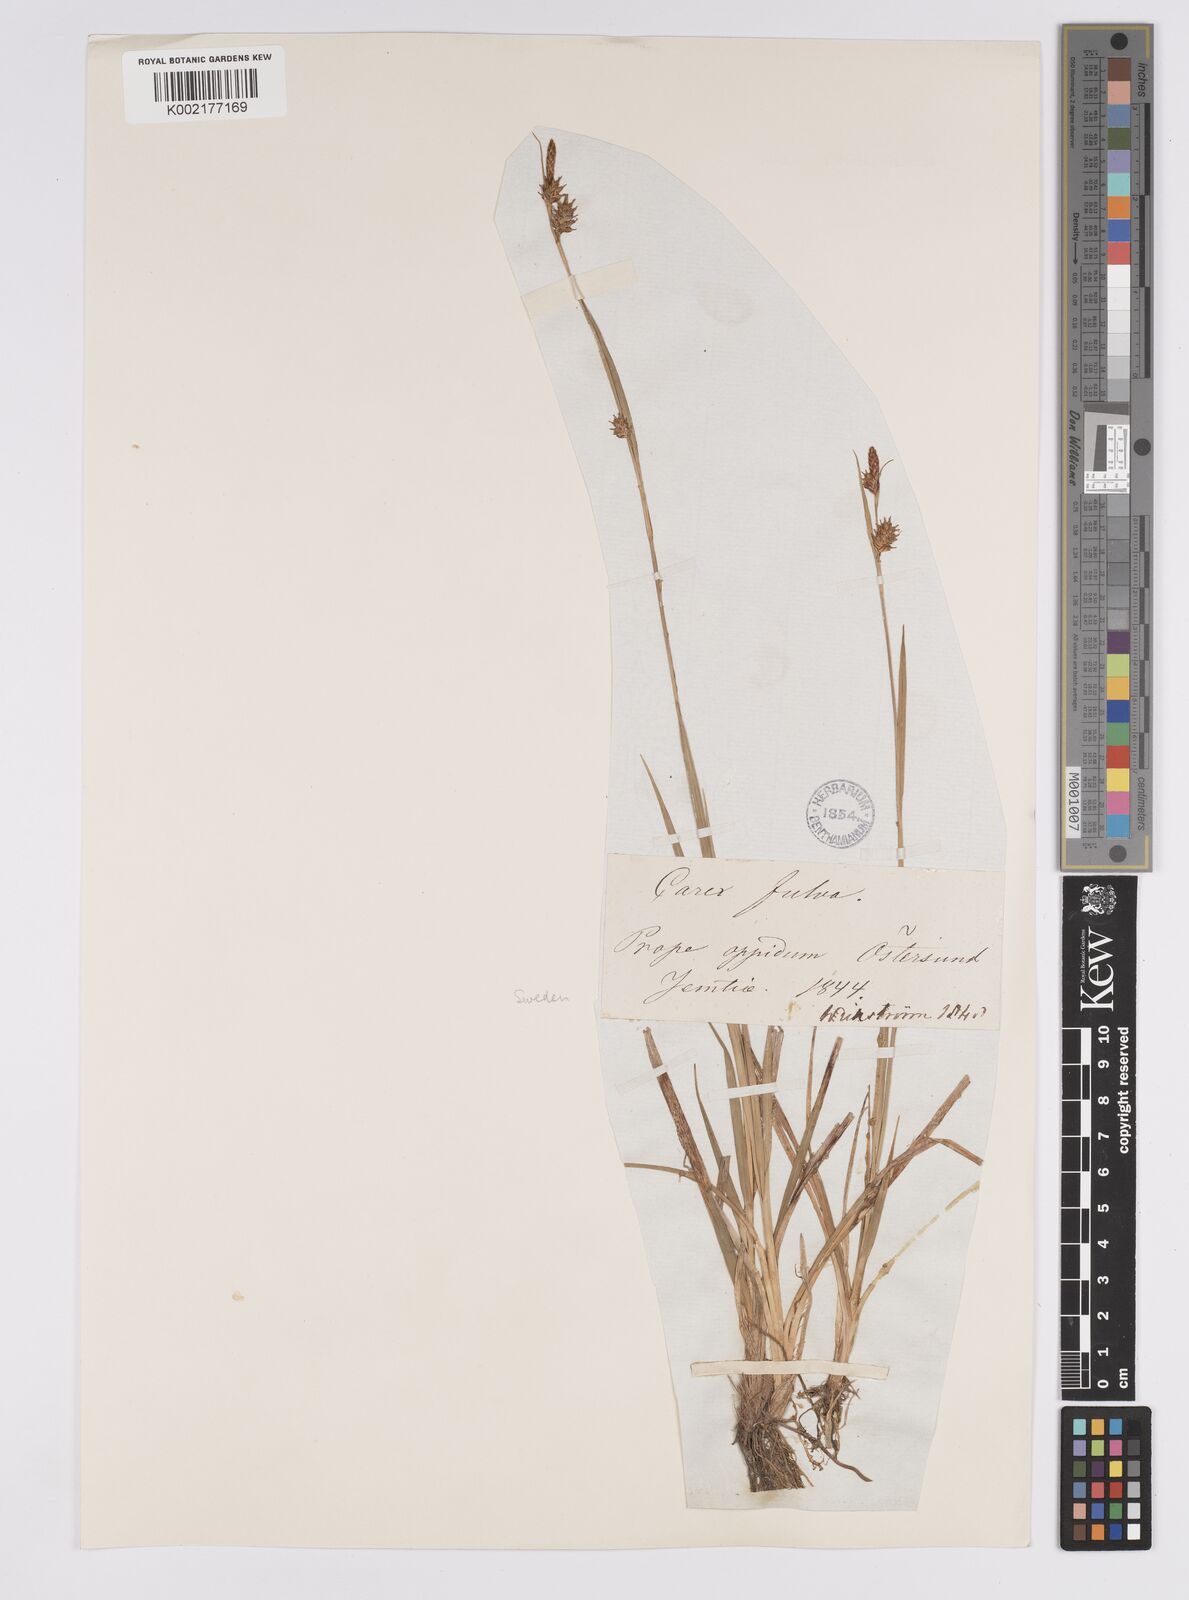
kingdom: Plantae
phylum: Tracheophyta
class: Liliopsida
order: Poales
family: Cyperaceae
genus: Carex
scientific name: Carex hostiana
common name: Tawny sedge
